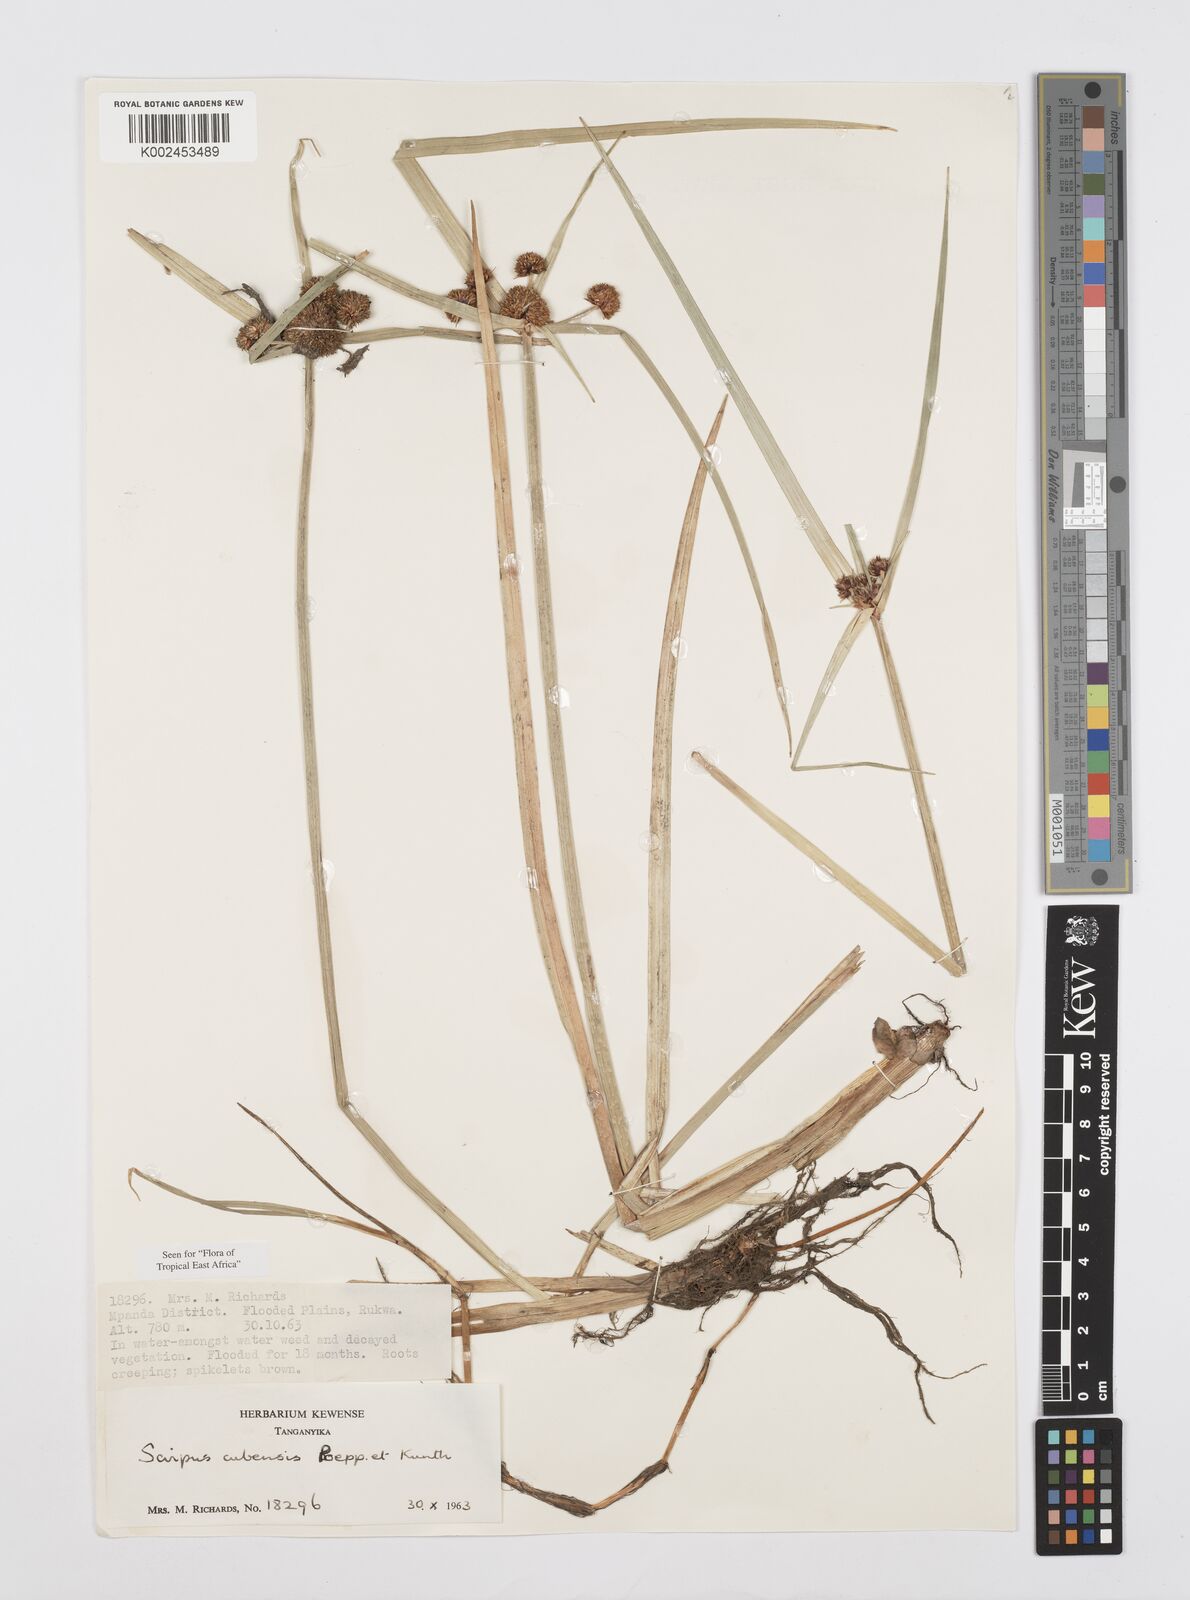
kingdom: Plantae
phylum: Tracheophyta
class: Liliopsida
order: Poales
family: Cyperaceae
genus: Cyperus
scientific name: Cyperus elegans
